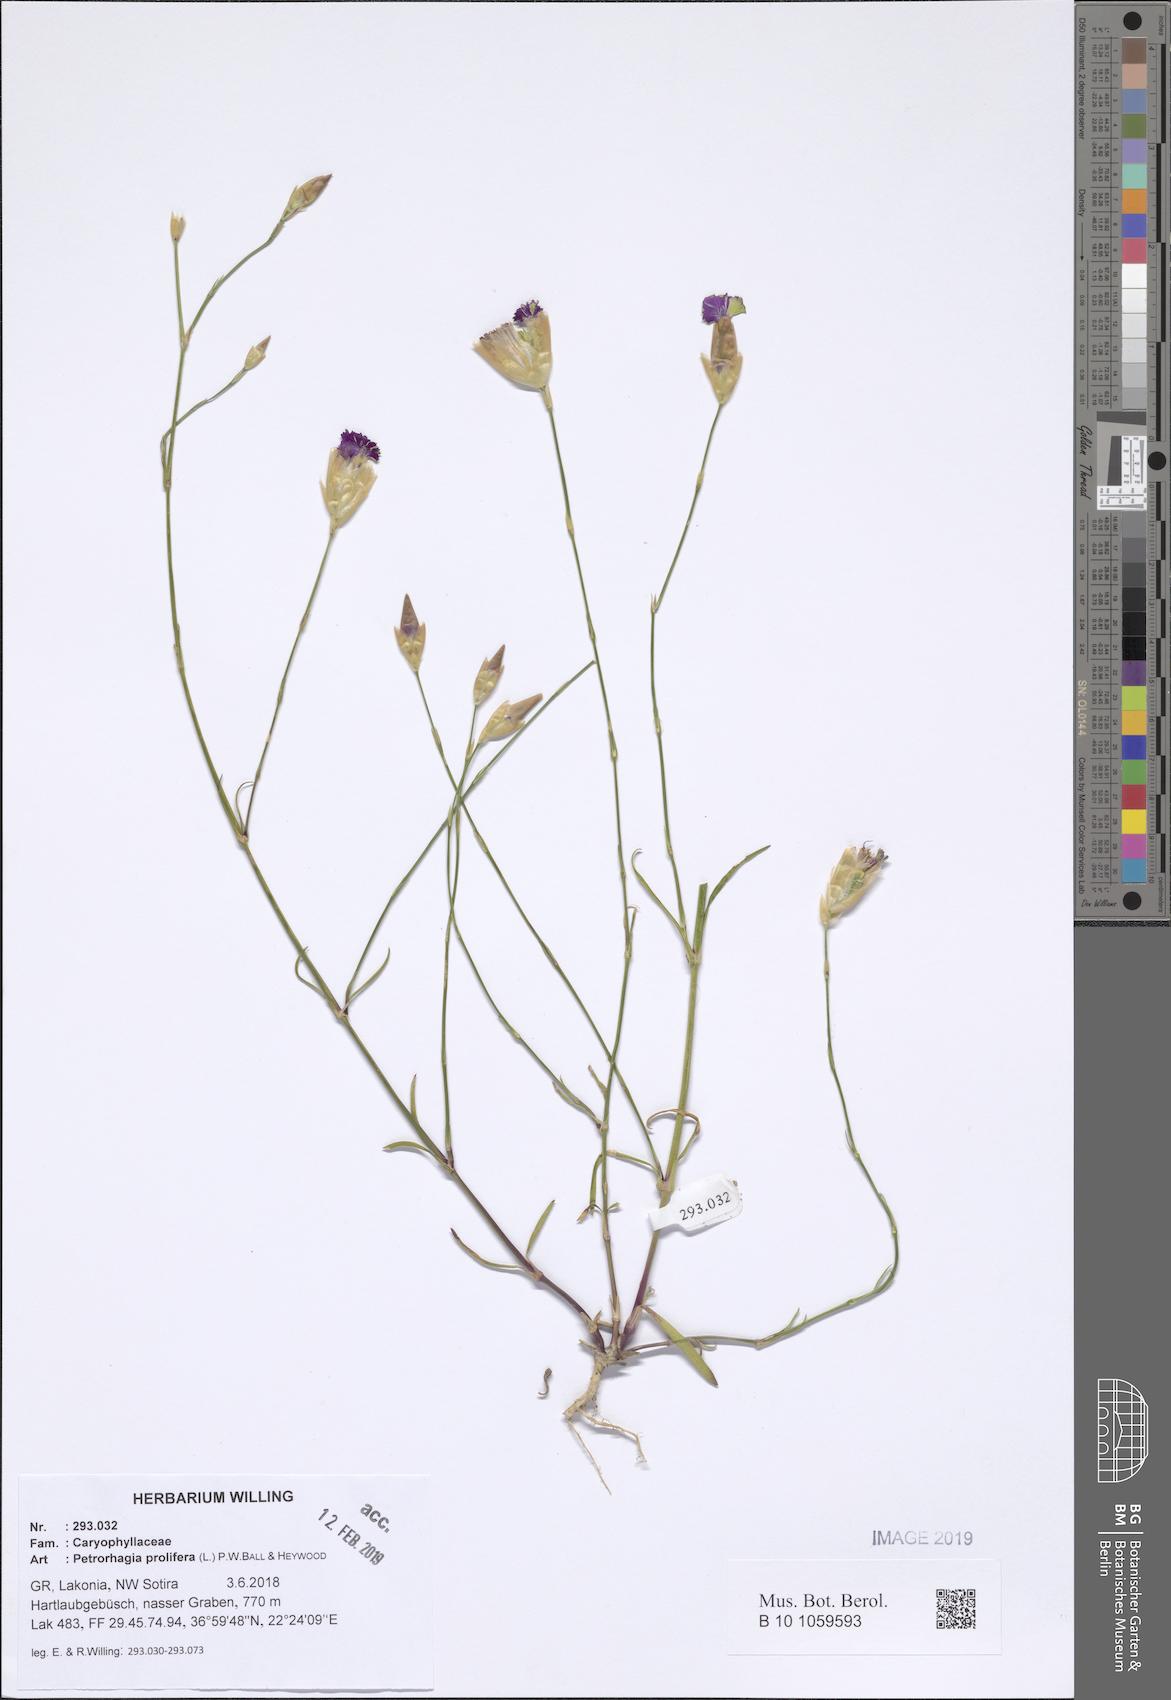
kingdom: Plantae
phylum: Tracheophyta
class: Magnoliopsida
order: Caryophyllales
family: Caryophyllaceae
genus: Petrorhagia
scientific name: Petrorhagia prolifera
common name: Proliferous pink
